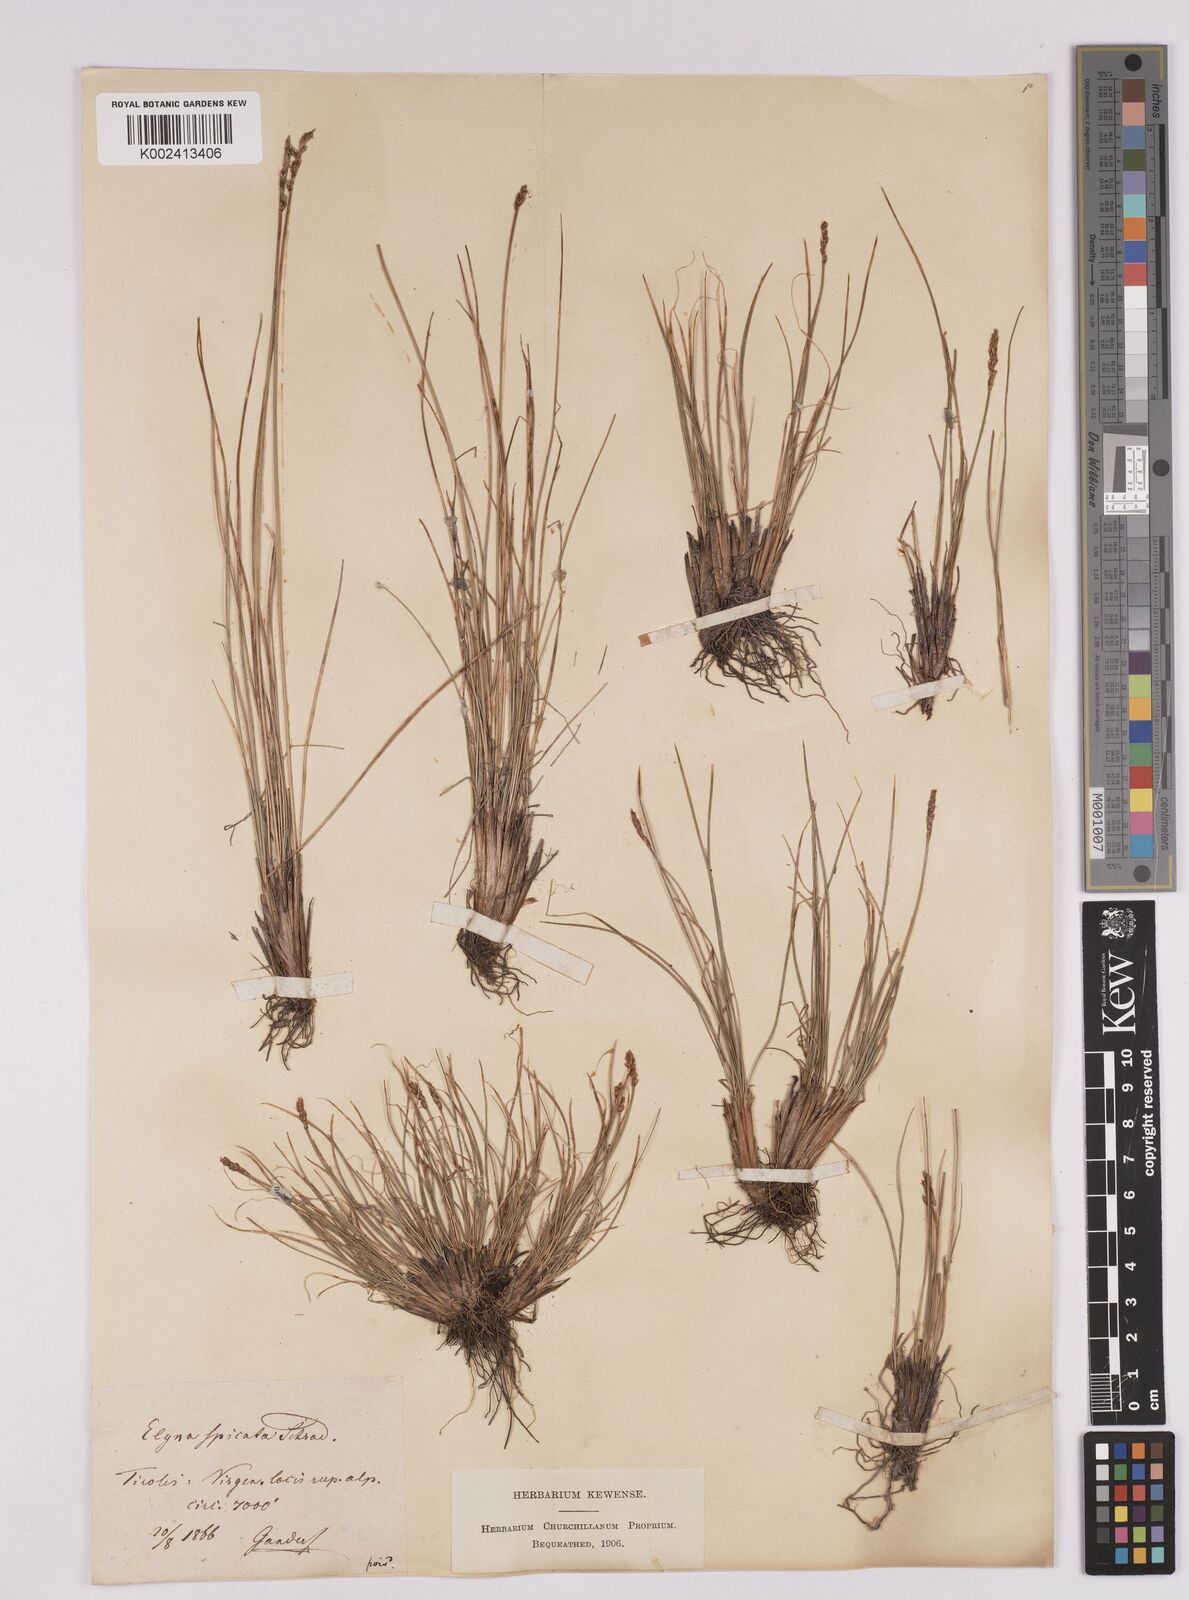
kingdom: Plantae
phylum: Tracheophyta
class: Liliopsida
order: Poales
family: Cyperaceae
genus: Carex
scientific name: Carex myosuroides
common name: Bellard's bog sedge
